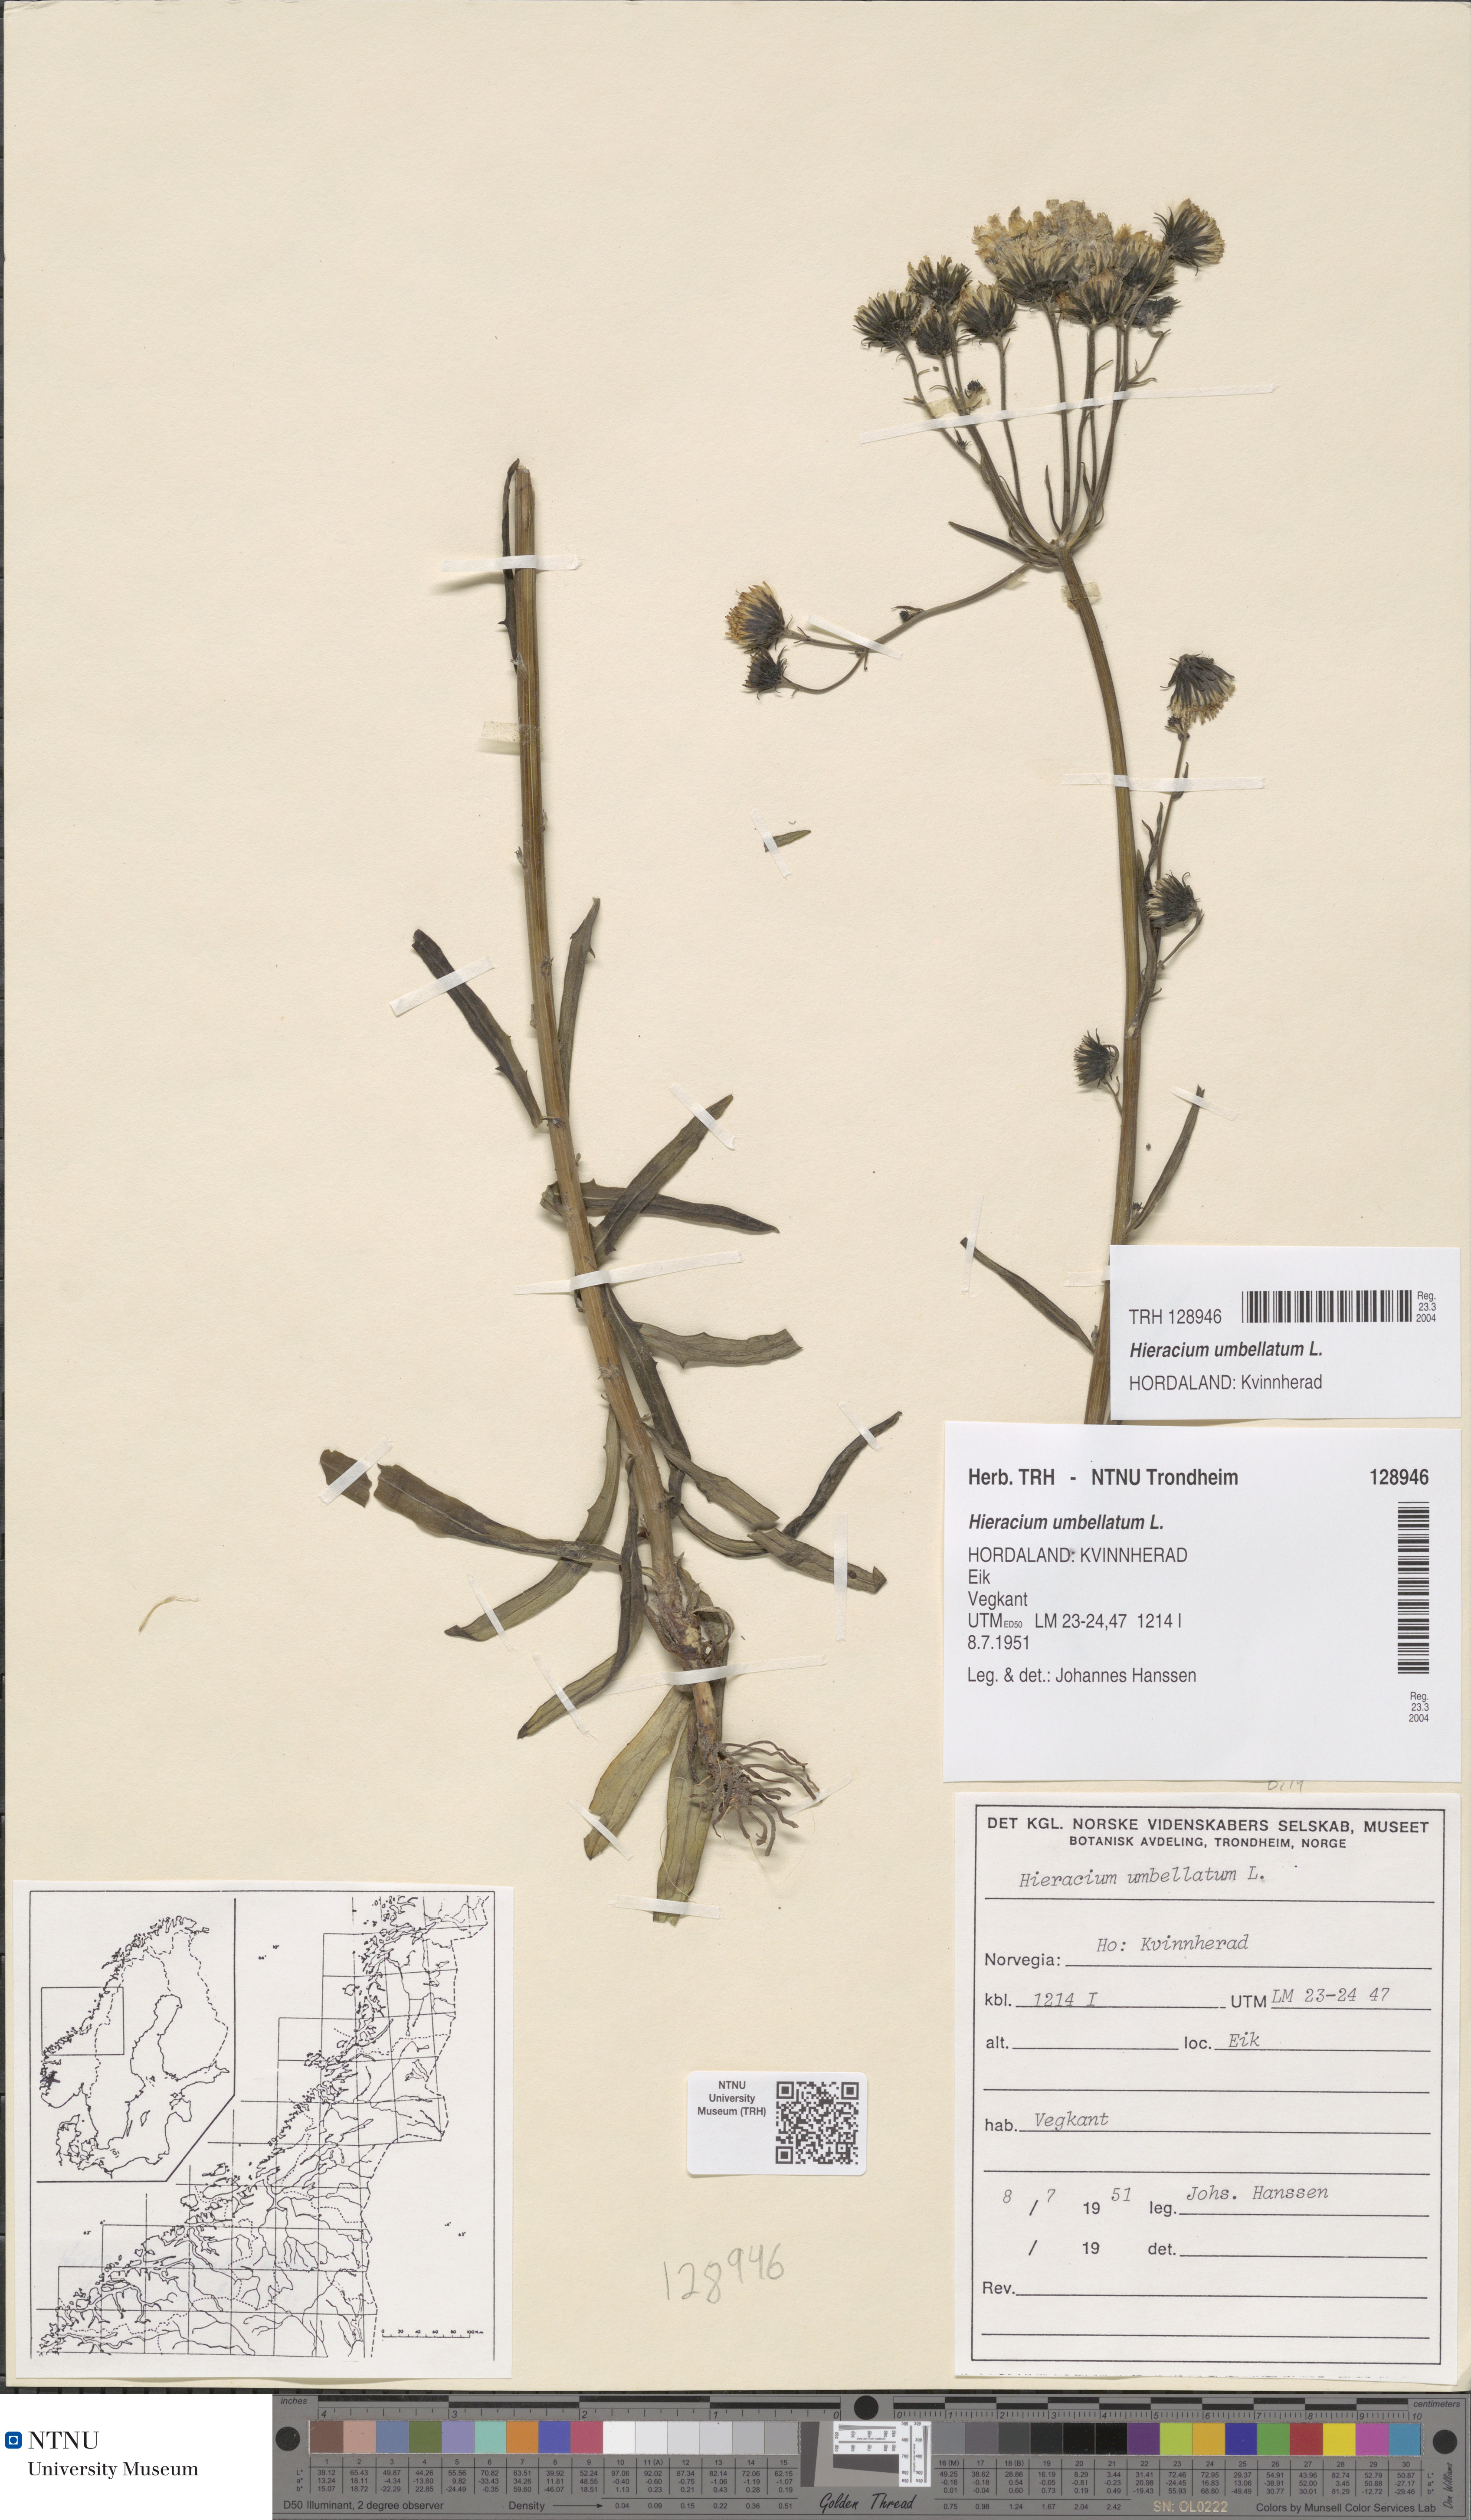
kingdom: Plantae
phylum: Tracheophyta
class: Magnoliopsida
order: Asterales
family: Asteraceae
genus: Hieracium
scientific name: Hieracium umbellatum
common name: Northern hawkweed
